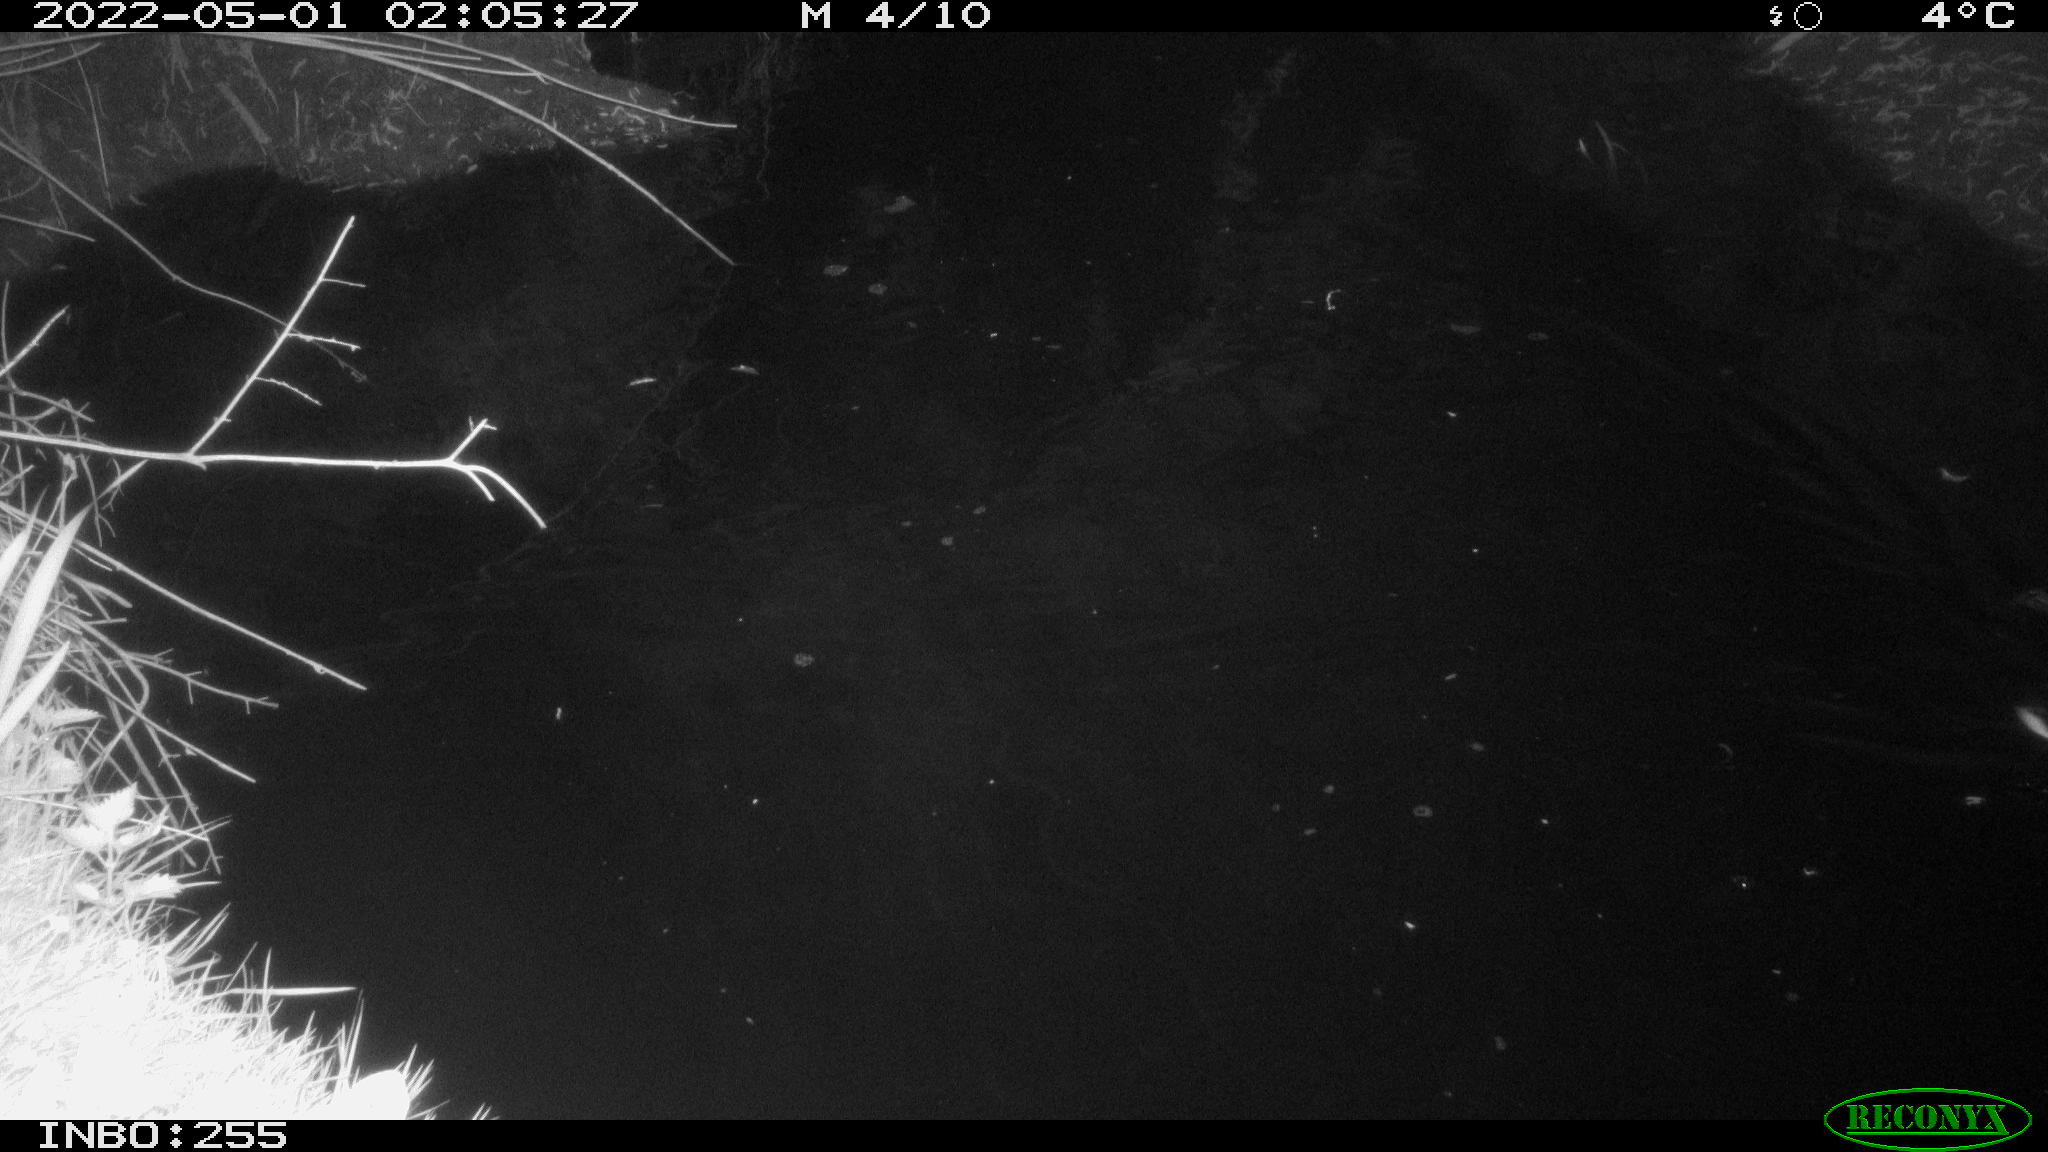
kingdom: Animalia
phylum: Chordata
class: Aves
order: Anseriformes
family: Anatidae
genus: Anas
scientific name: Anas platyrhynchos
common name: Mallard
